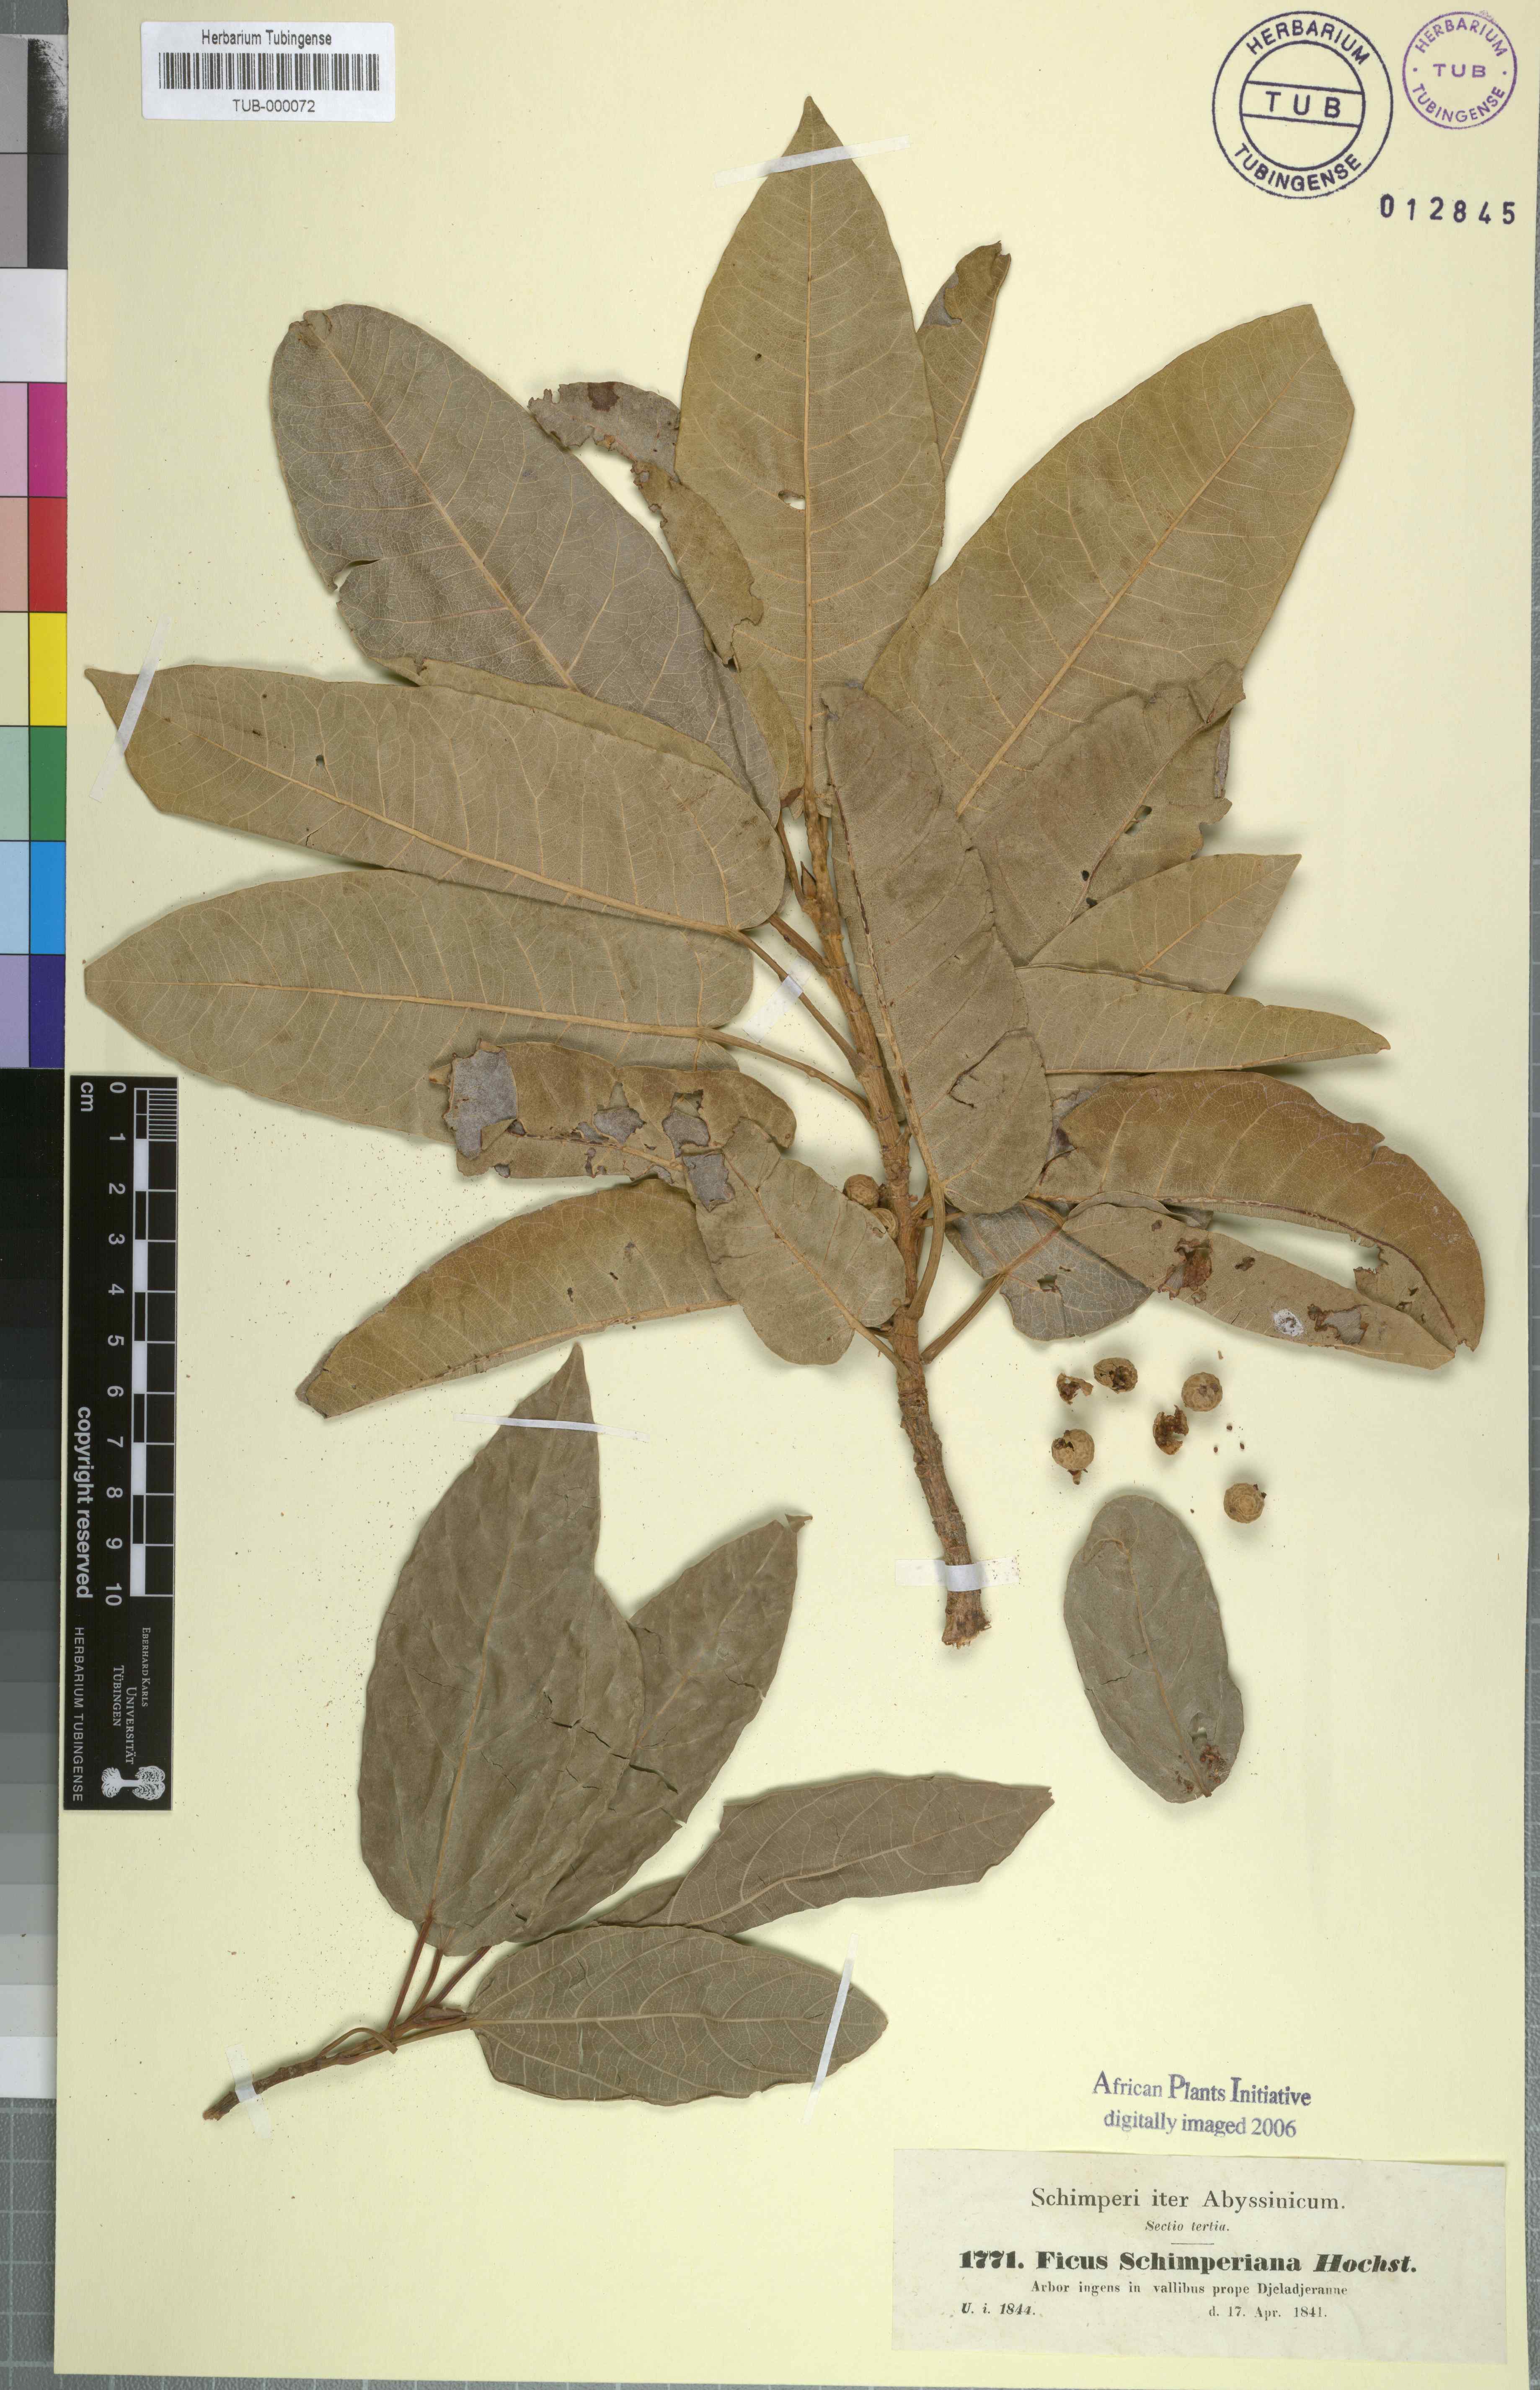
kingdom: Plantae
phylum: Tracheophyta
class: Magnoliopsida
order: Rosales
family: Moraceae
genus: Ficus
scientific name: Ficus ingens
